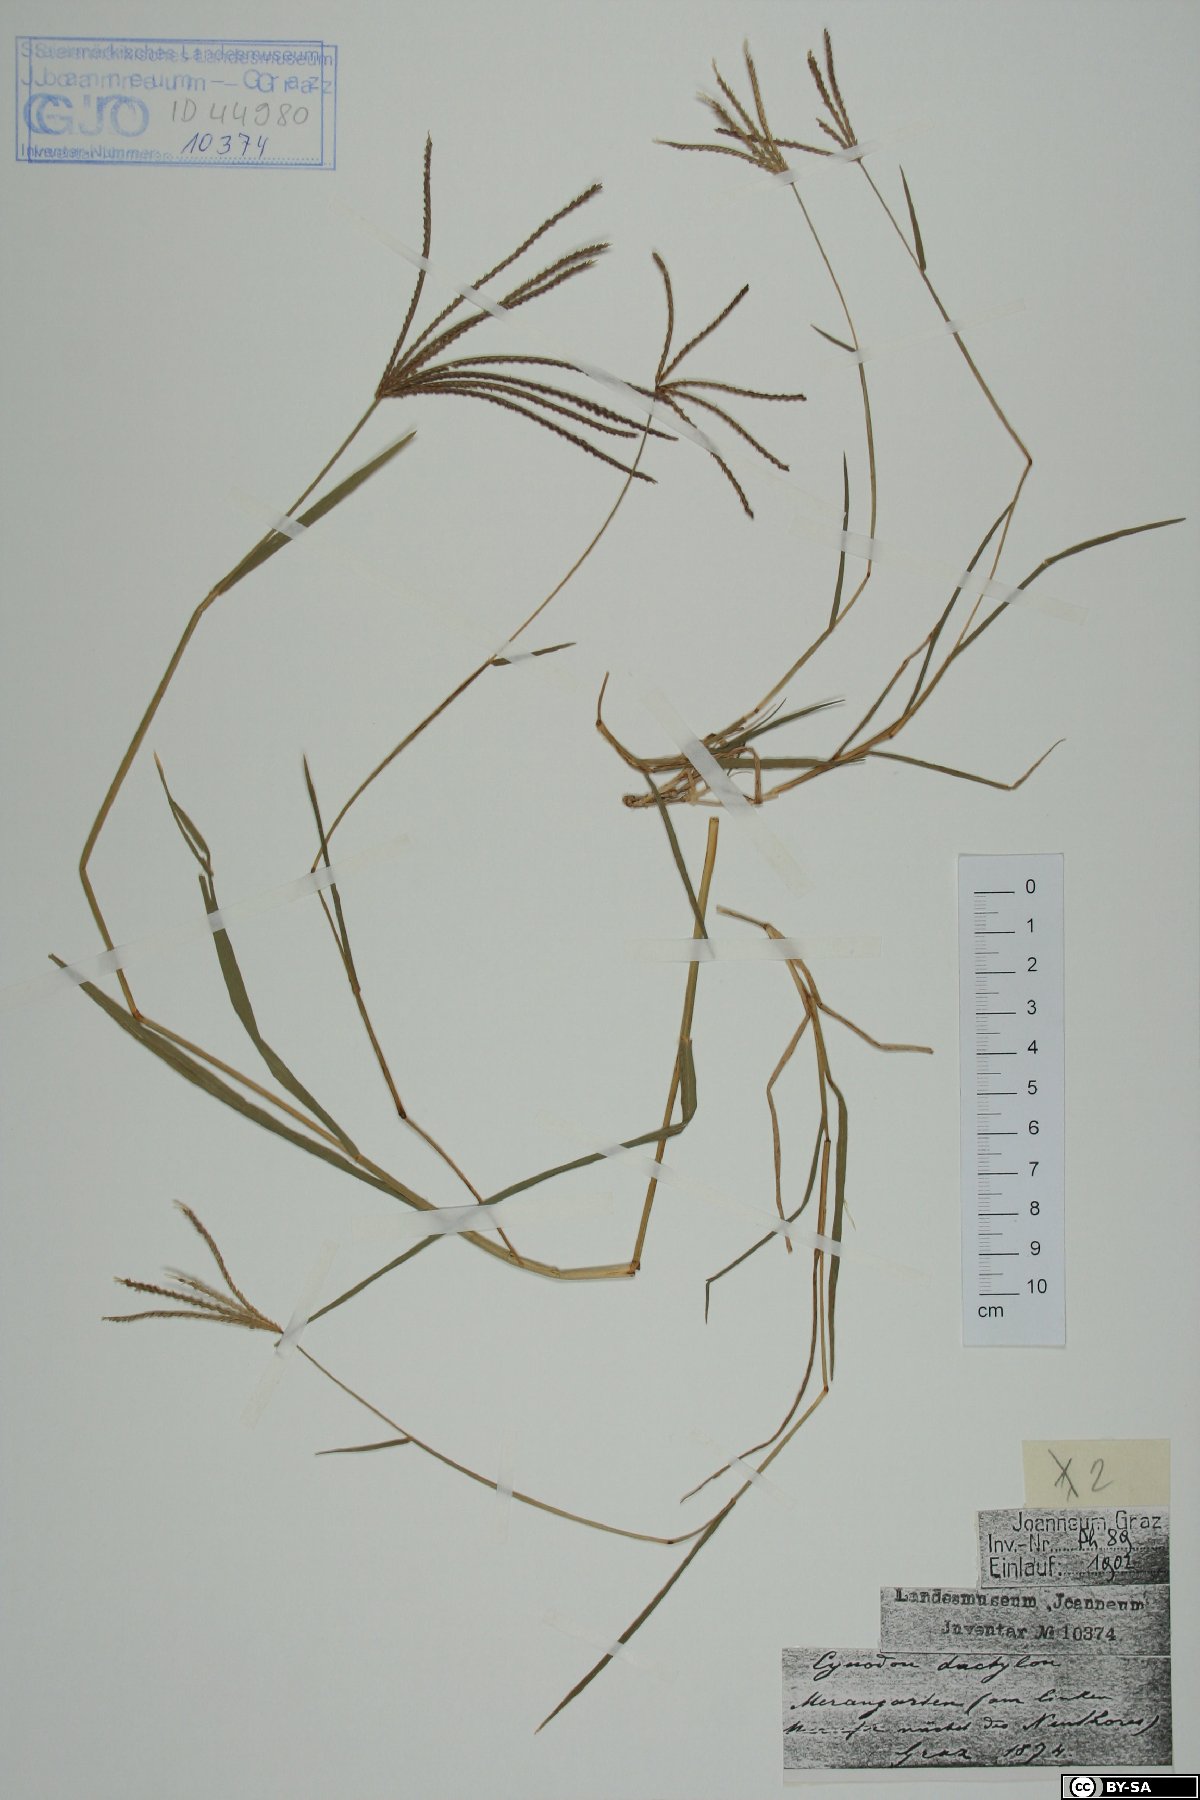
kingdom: Plantae
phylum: Tracheophyta
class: Liliopsida
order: Poales
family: Poaceae
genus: Cynodon
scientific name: Cynodon dactylon
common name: Bermuda grass
